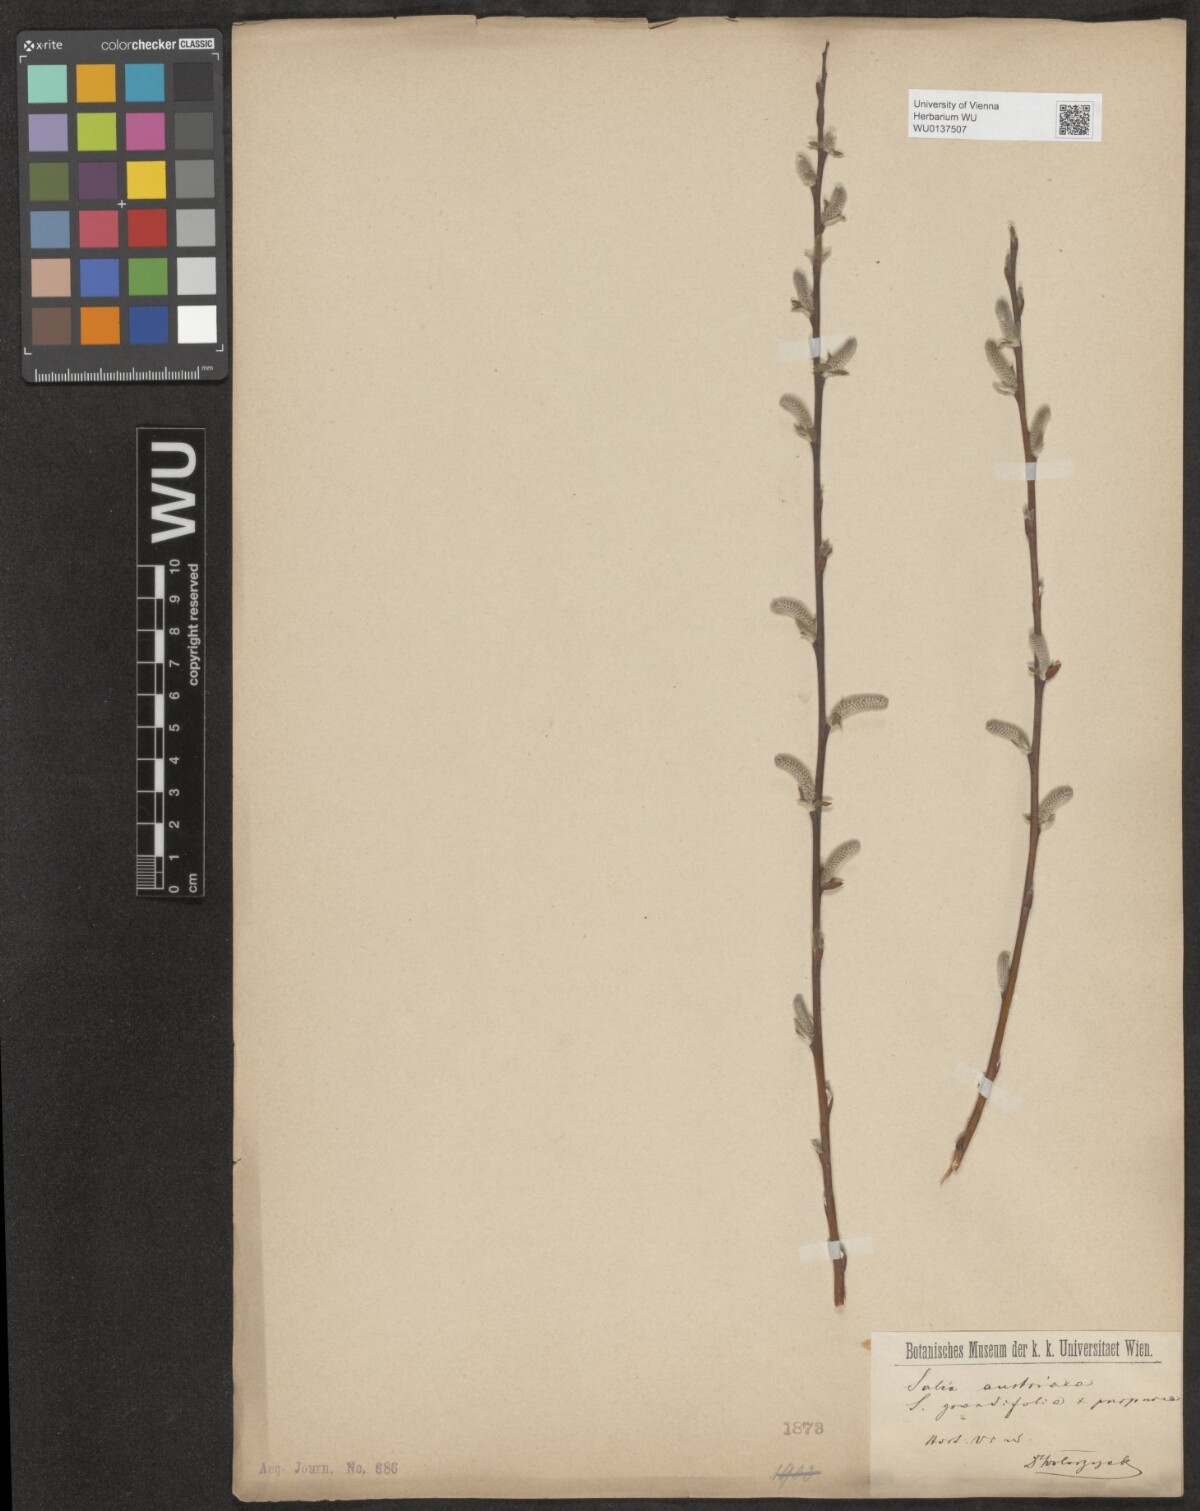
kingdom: Plantae
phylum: Tracheophyta
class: Magnoliopsida
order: Malpighiales
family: Salicaceae
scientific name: Salicaceae
